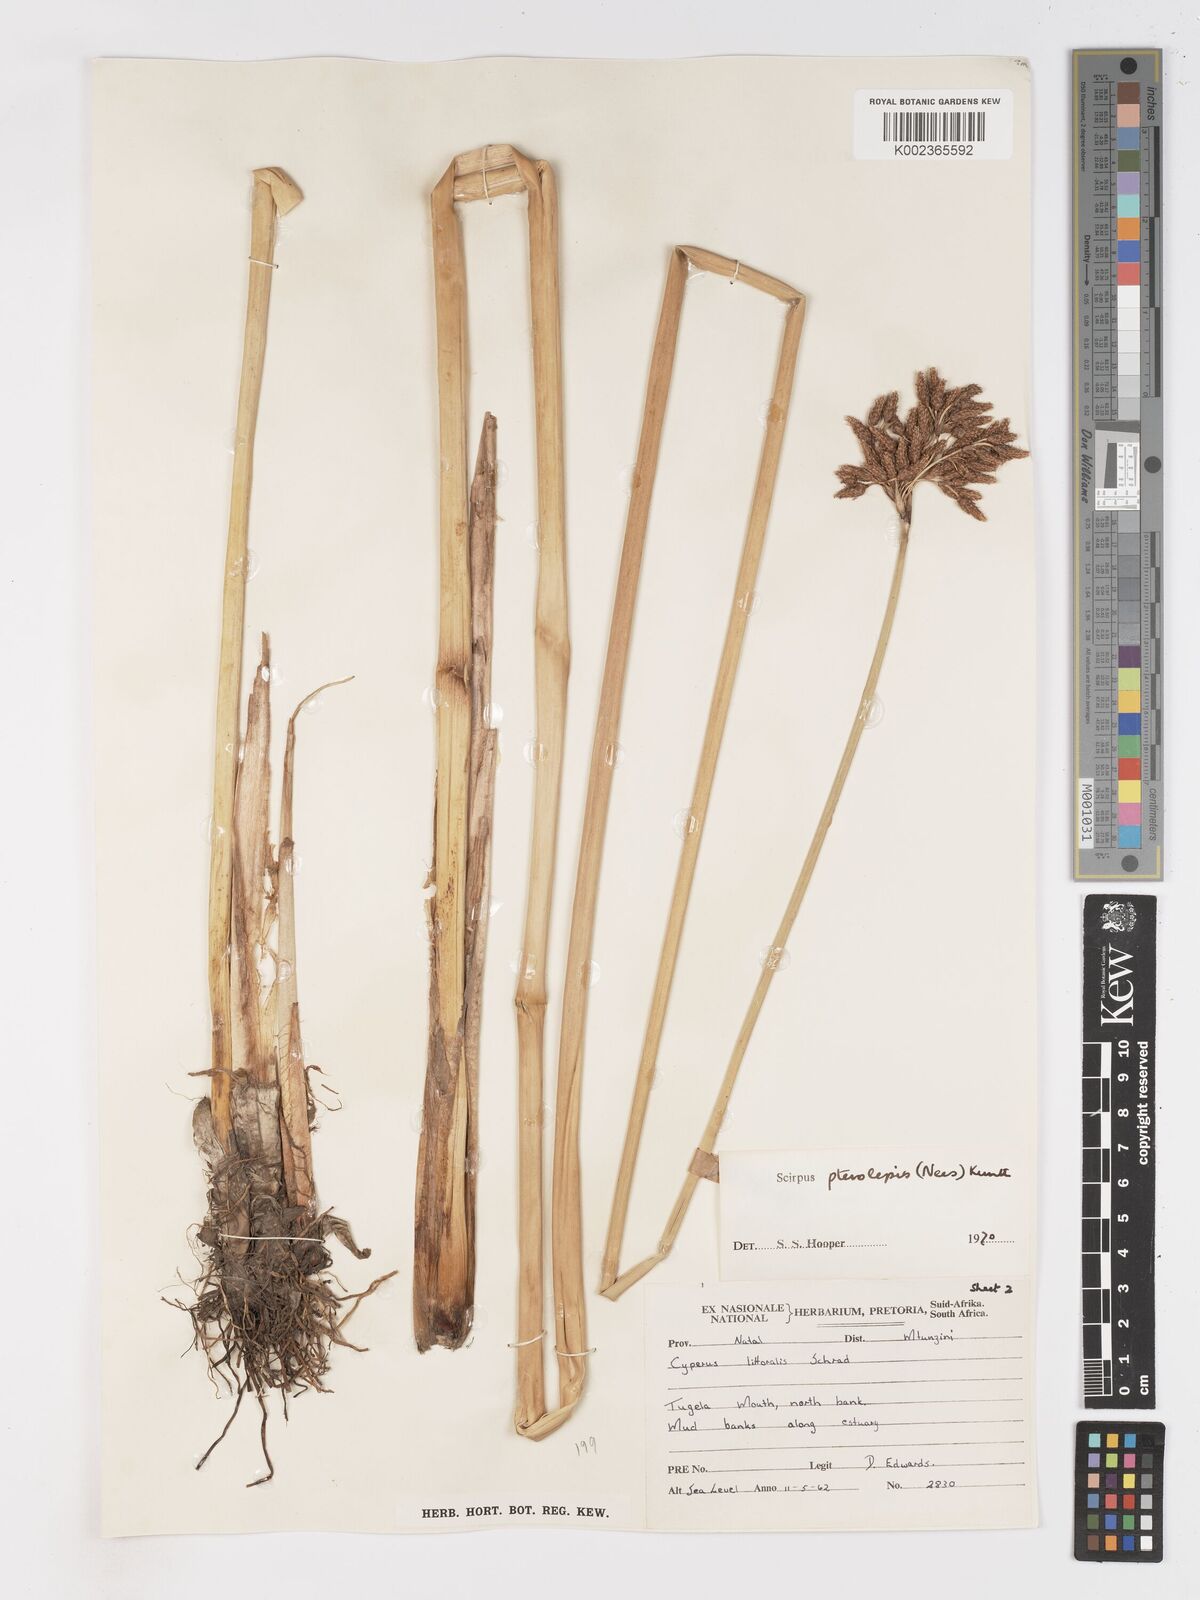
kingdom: Plantae
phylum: Tracheophyta
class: Liliopsida
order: Poales
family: Cyperaceae
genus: Schoenoplectus
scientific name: Schoenoplectus
